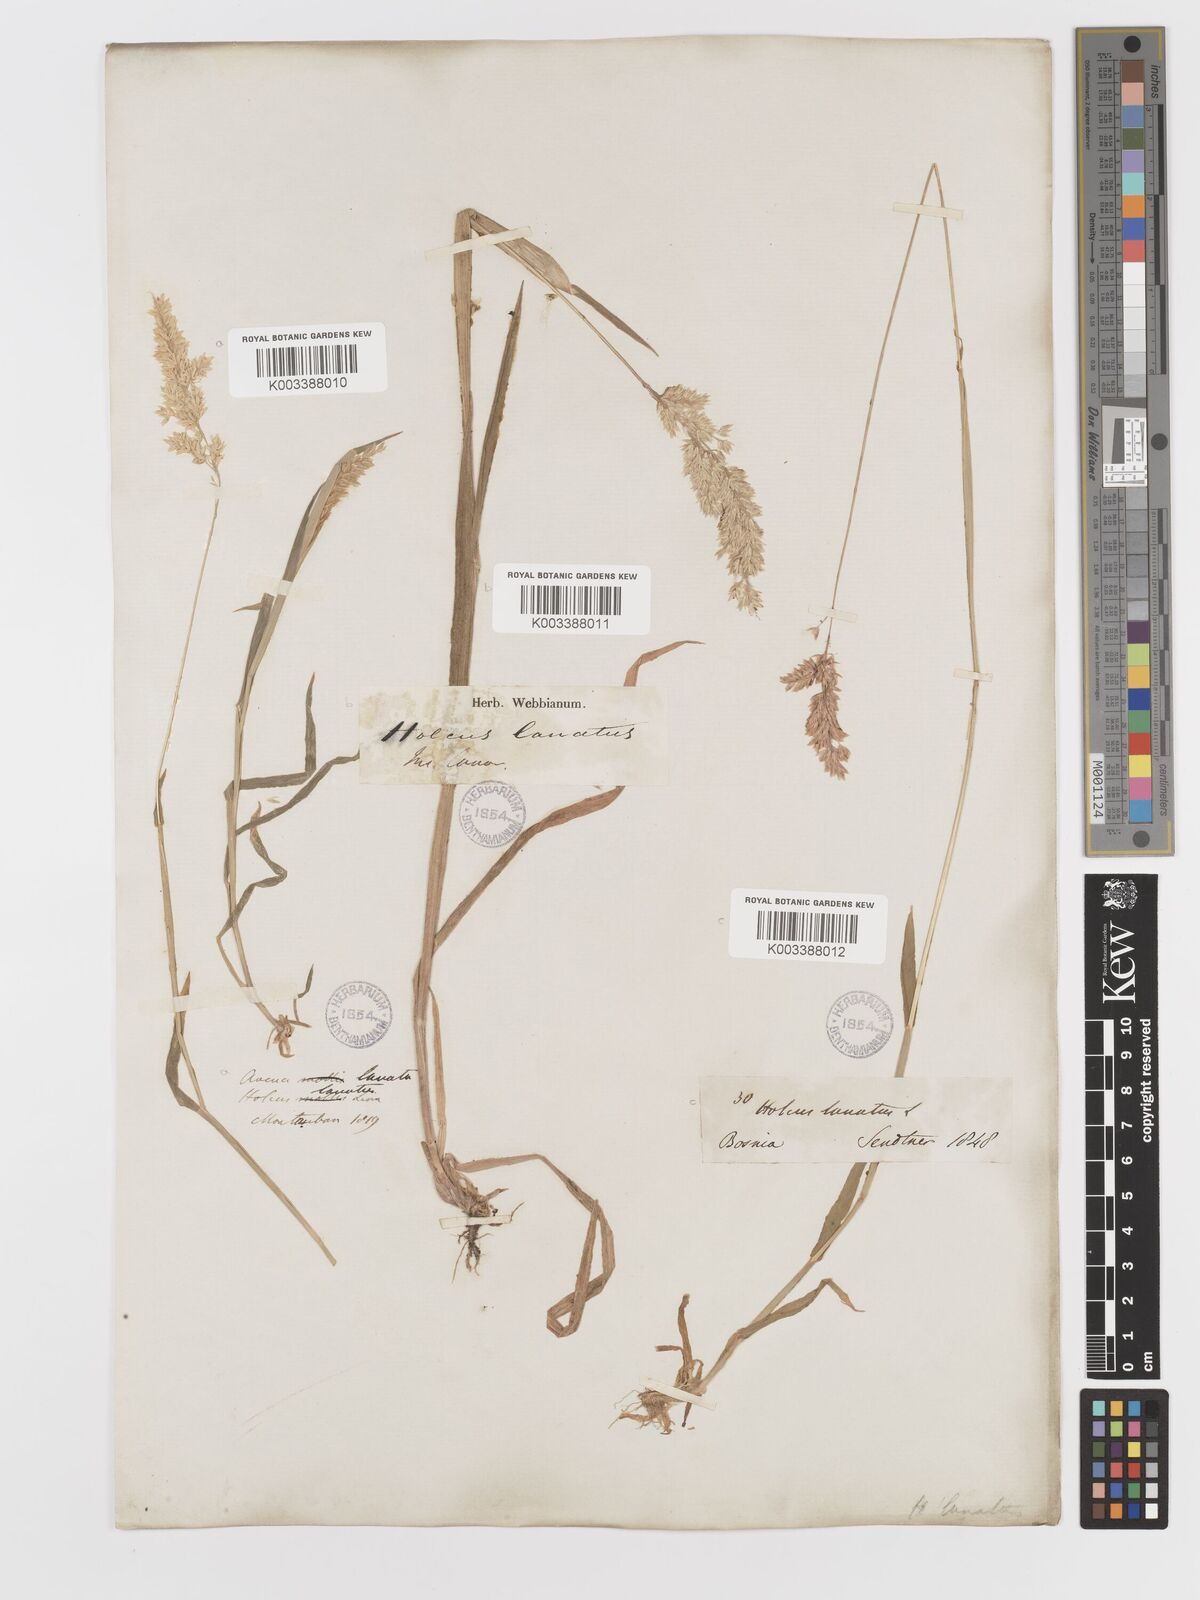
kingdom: Plantae
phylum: Tracheophyta
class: Liliopsida
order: Poales
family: Poaceae
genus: Holcus
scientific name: Holcus lanatus
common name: Yorkshire-fog
